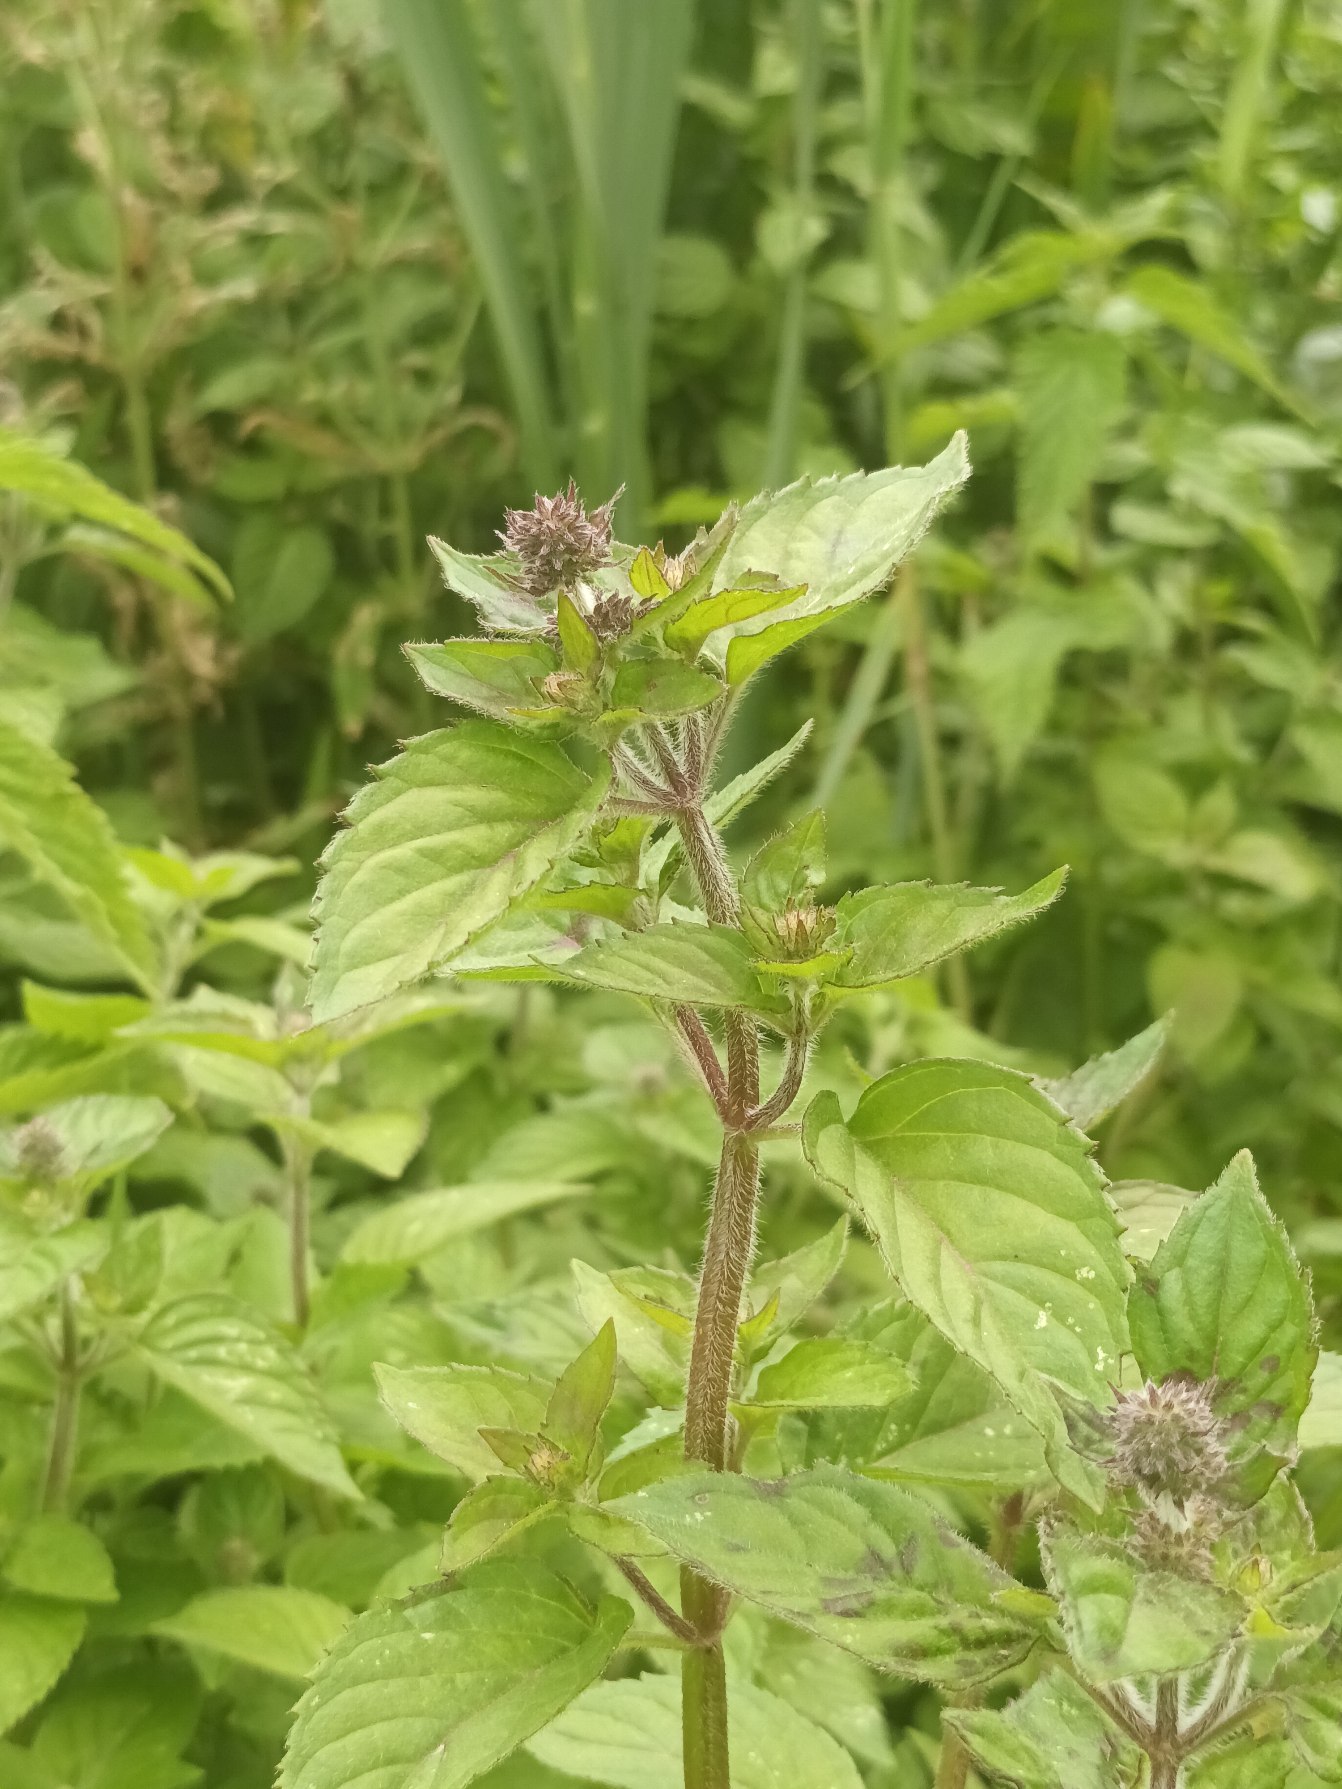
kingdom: Plantae
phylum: Tracheophyta
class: Magnoliopsida
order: Lamiales
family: Lamiaceae
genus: Mentha
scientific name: Mentha aquatica
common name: Vand-mynte
